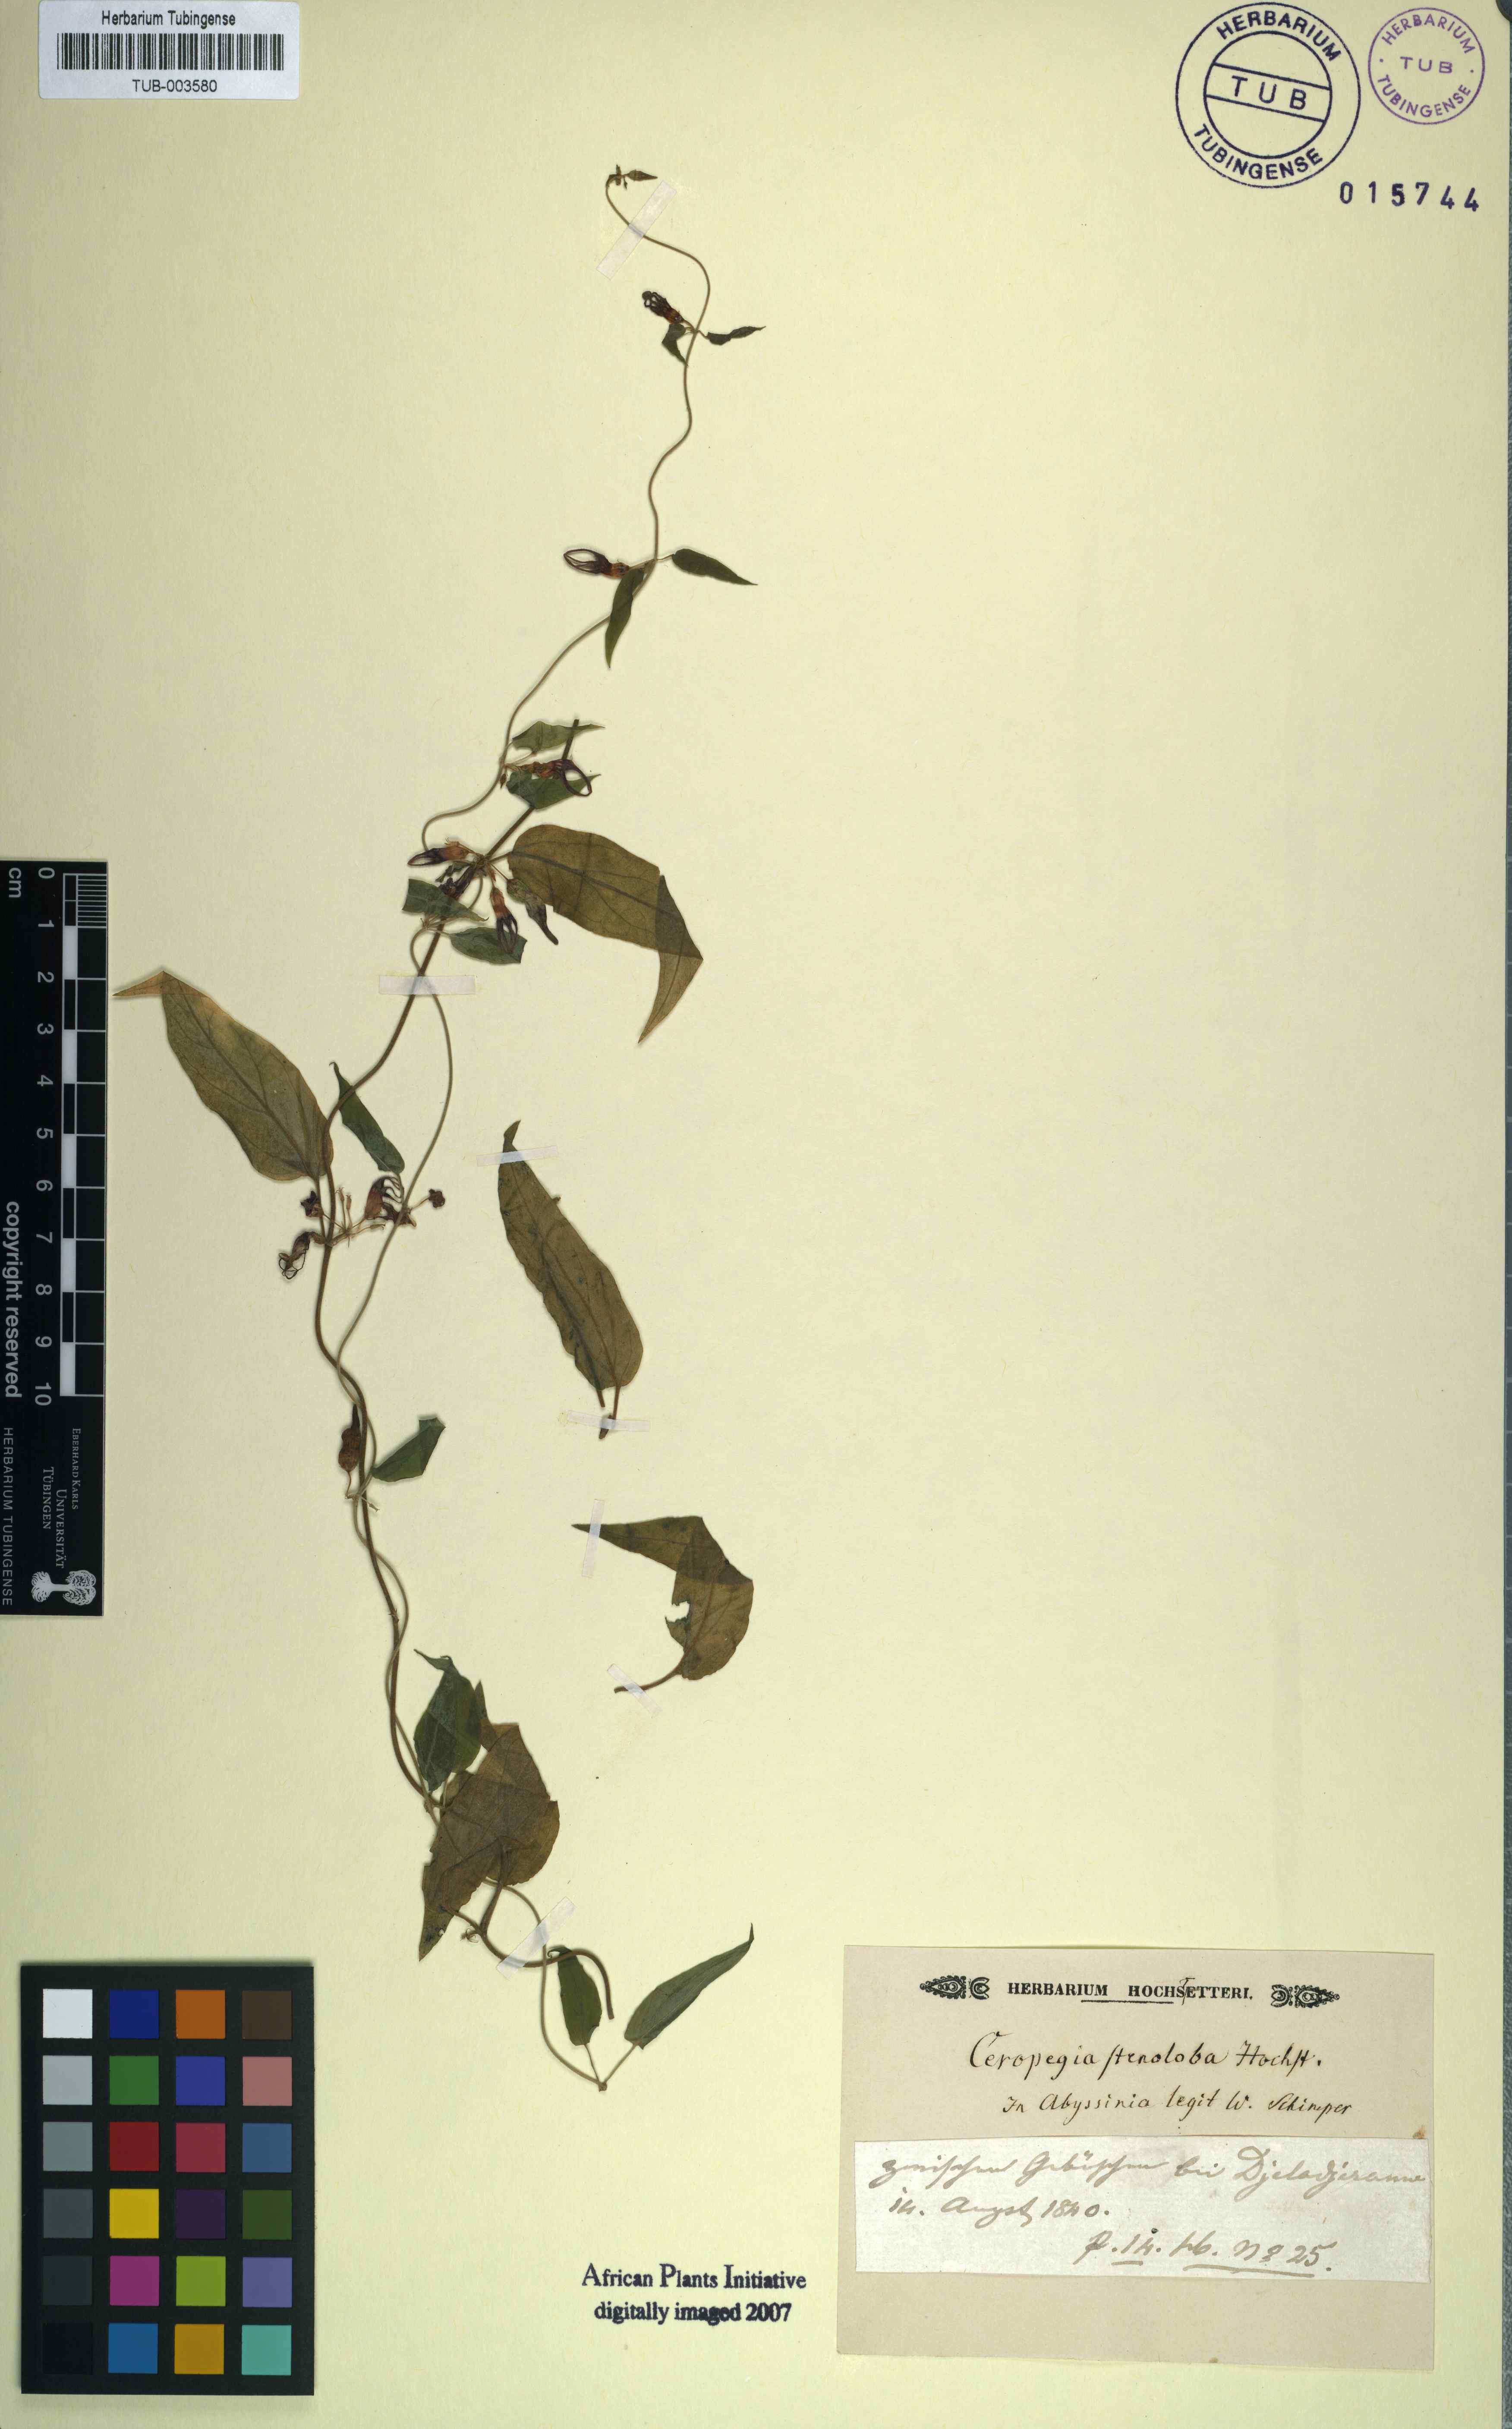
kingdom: Plantae
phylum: Tracheophyta
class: Magnoliopsida
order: Gentianales
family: Apocynaceae
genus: Ceropegia
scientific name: Ceropegia stenoloba
